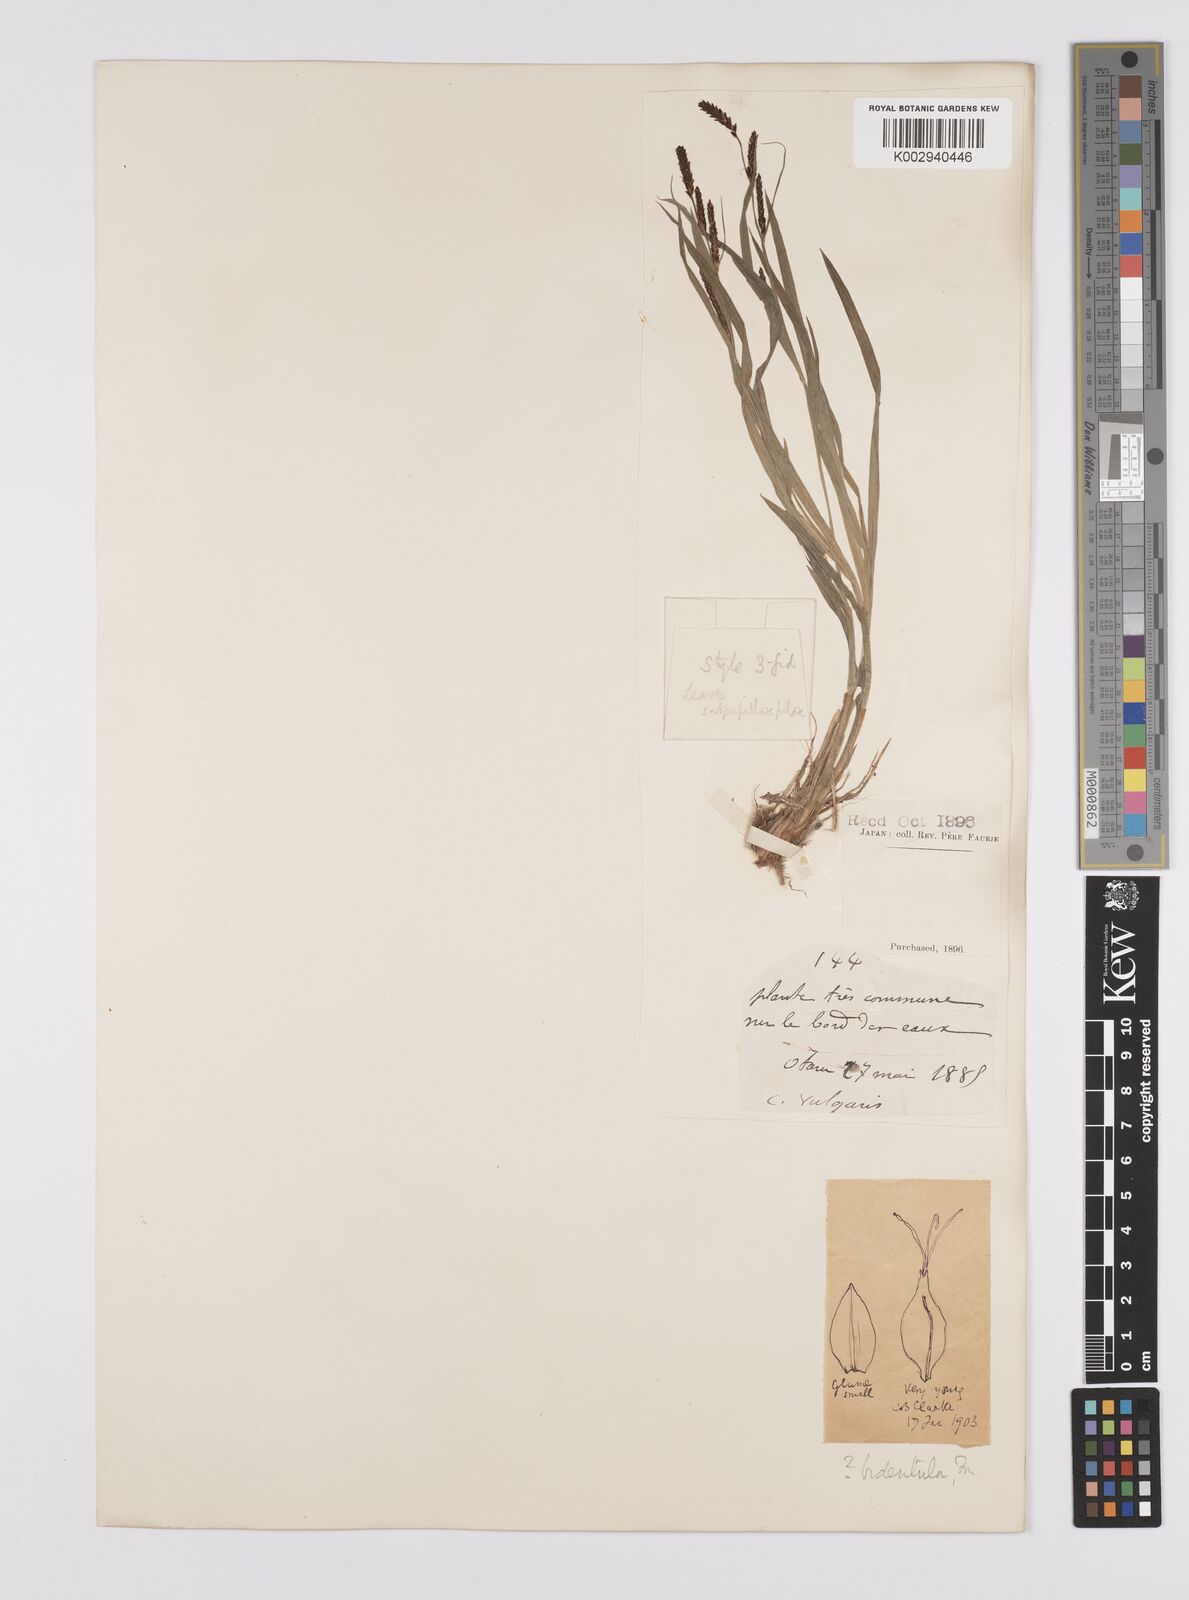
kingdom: Plantae
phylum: Tracheophyta
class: Liliopsida
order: Poales
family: Cyperaceae
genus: Carex
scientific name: Carex augustinowiczii
